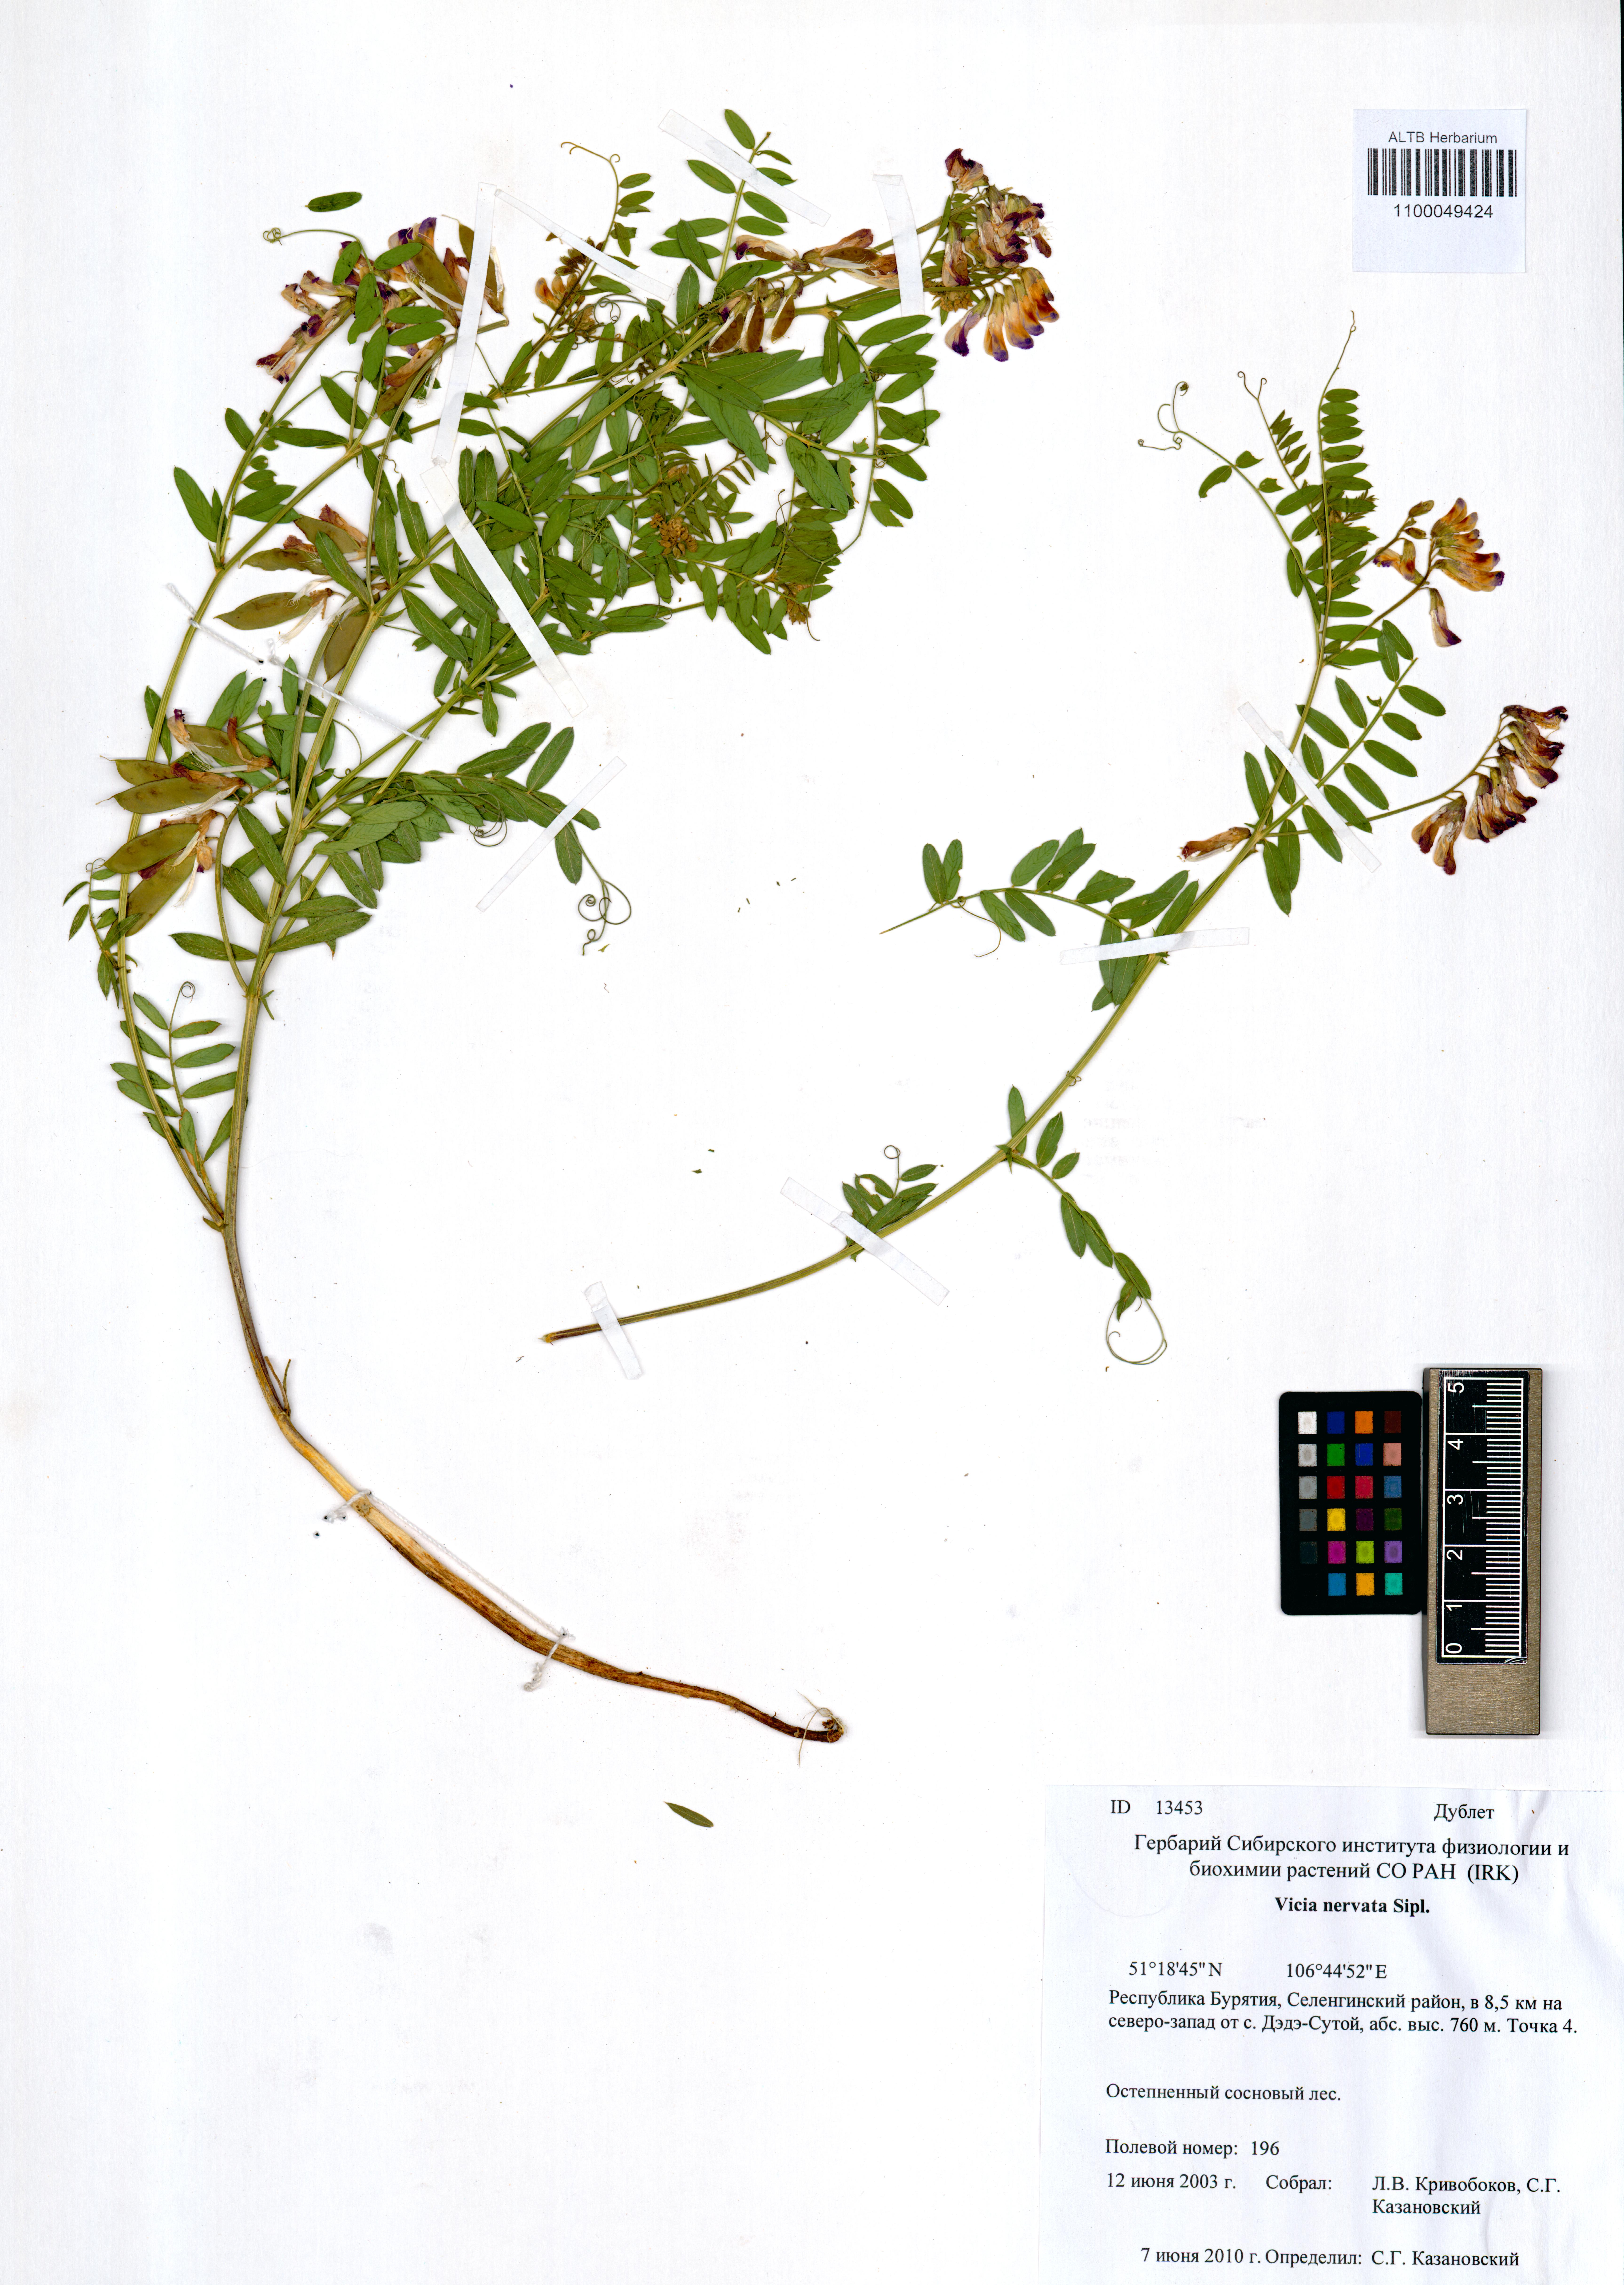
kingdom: Plantae
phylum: Tracheophyta
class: Magnoliopsida
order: Fabales
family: Fabaceae
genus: Vicia
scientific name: Vicia multicaulis
